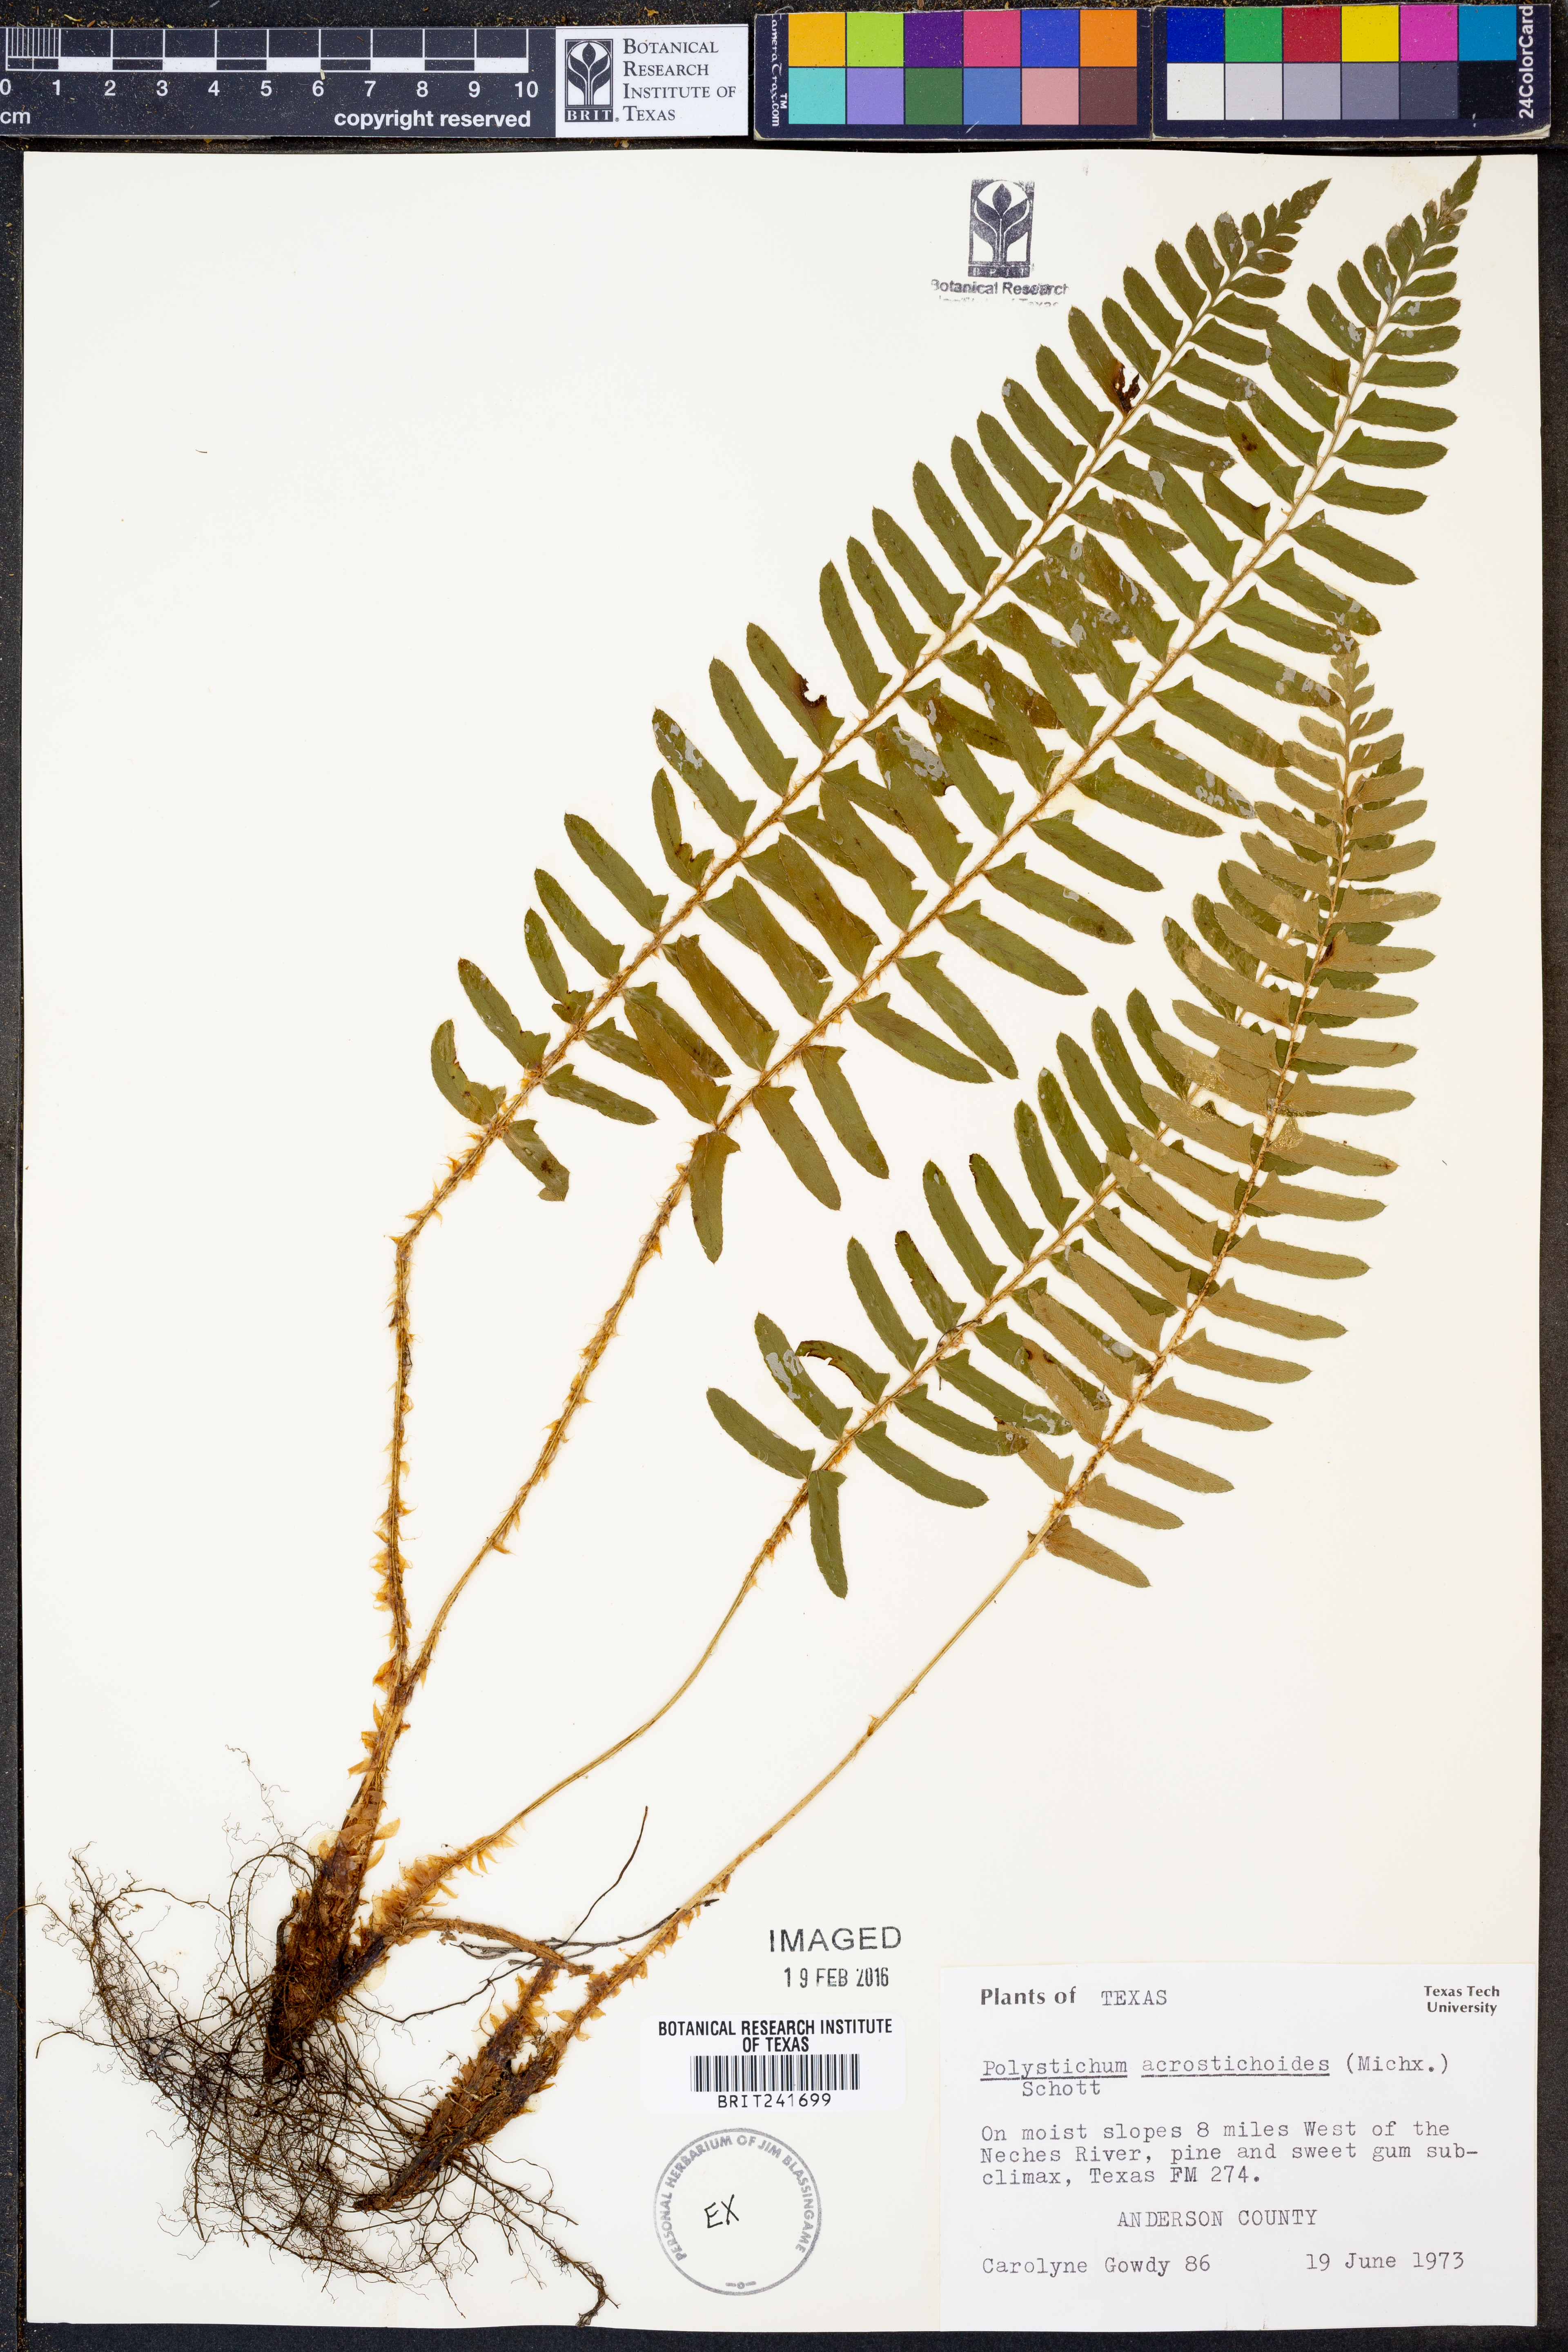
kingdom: Plantae
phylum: Tracheophyta
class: Polypodiopsida
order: Polypodiales
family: Dryopteridaceae
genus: Polystichum
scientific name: Polystichum acrostichoides
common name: Christmas fern
